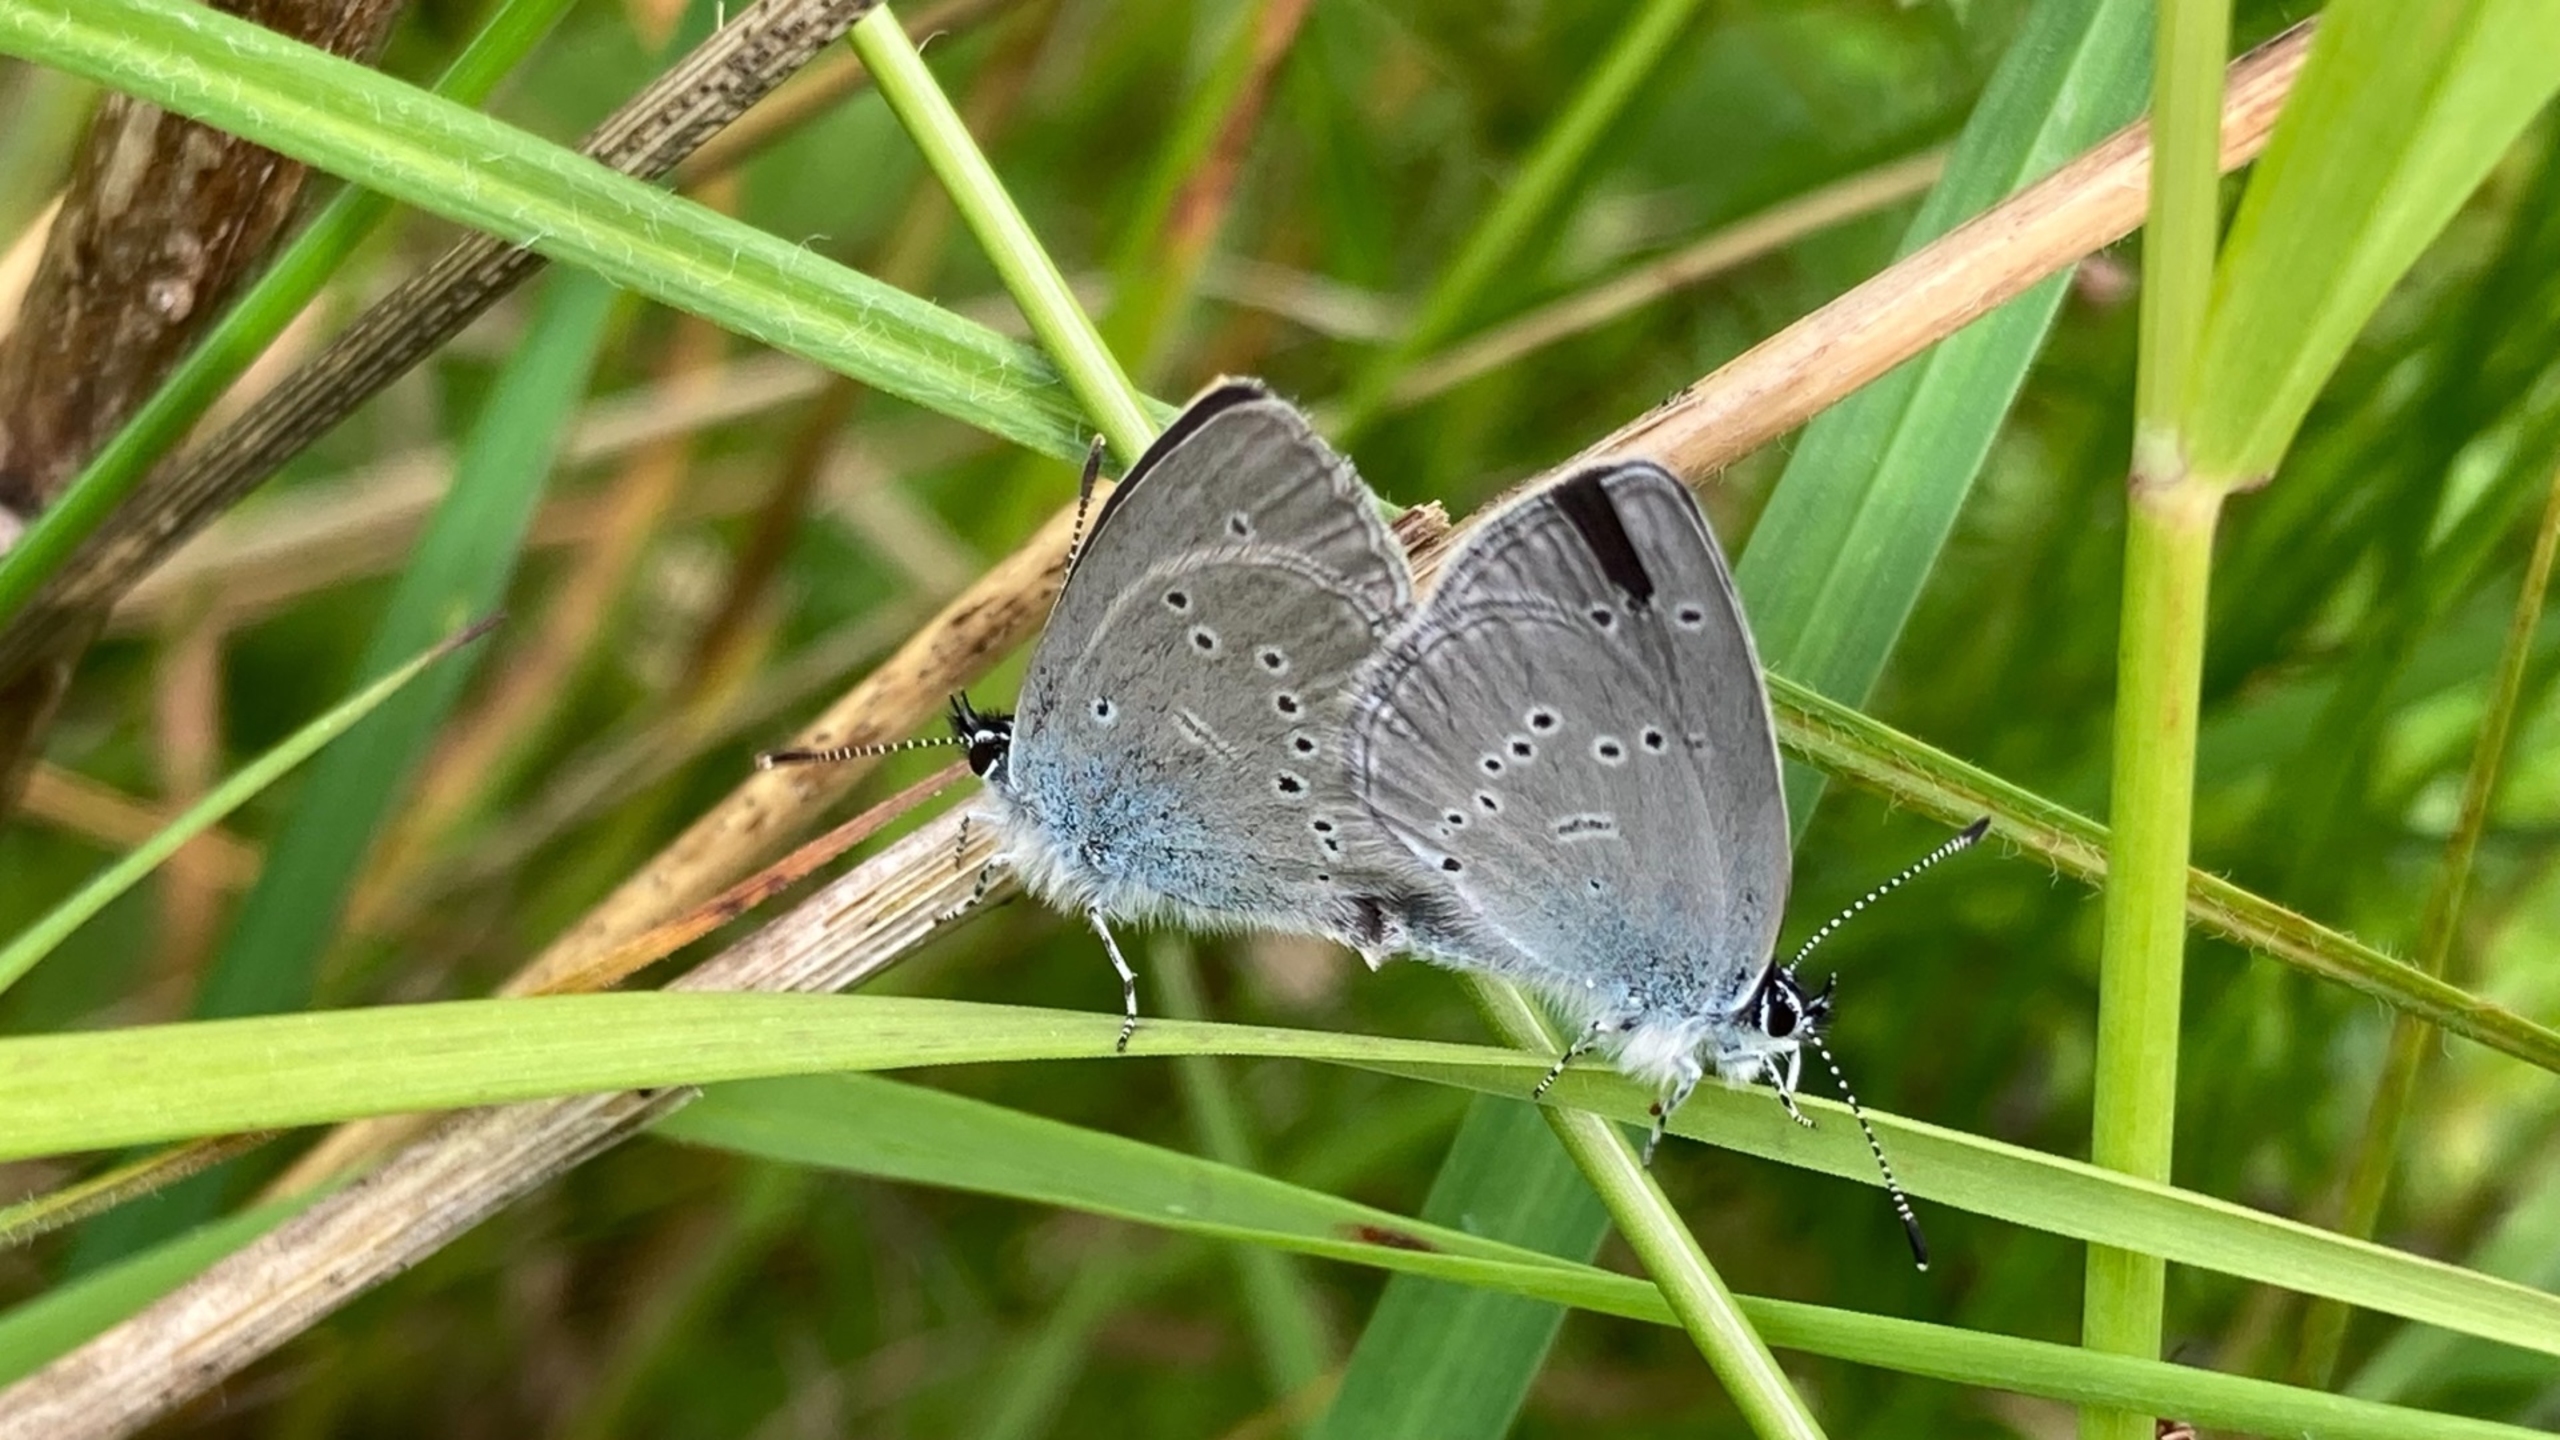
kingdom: Animalia
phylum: Arthropoda
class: Insecta
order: Lepidoptera
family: Lycaenidae
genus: Cupido
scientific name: Cupido minimus
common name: Dværgblåfugl
